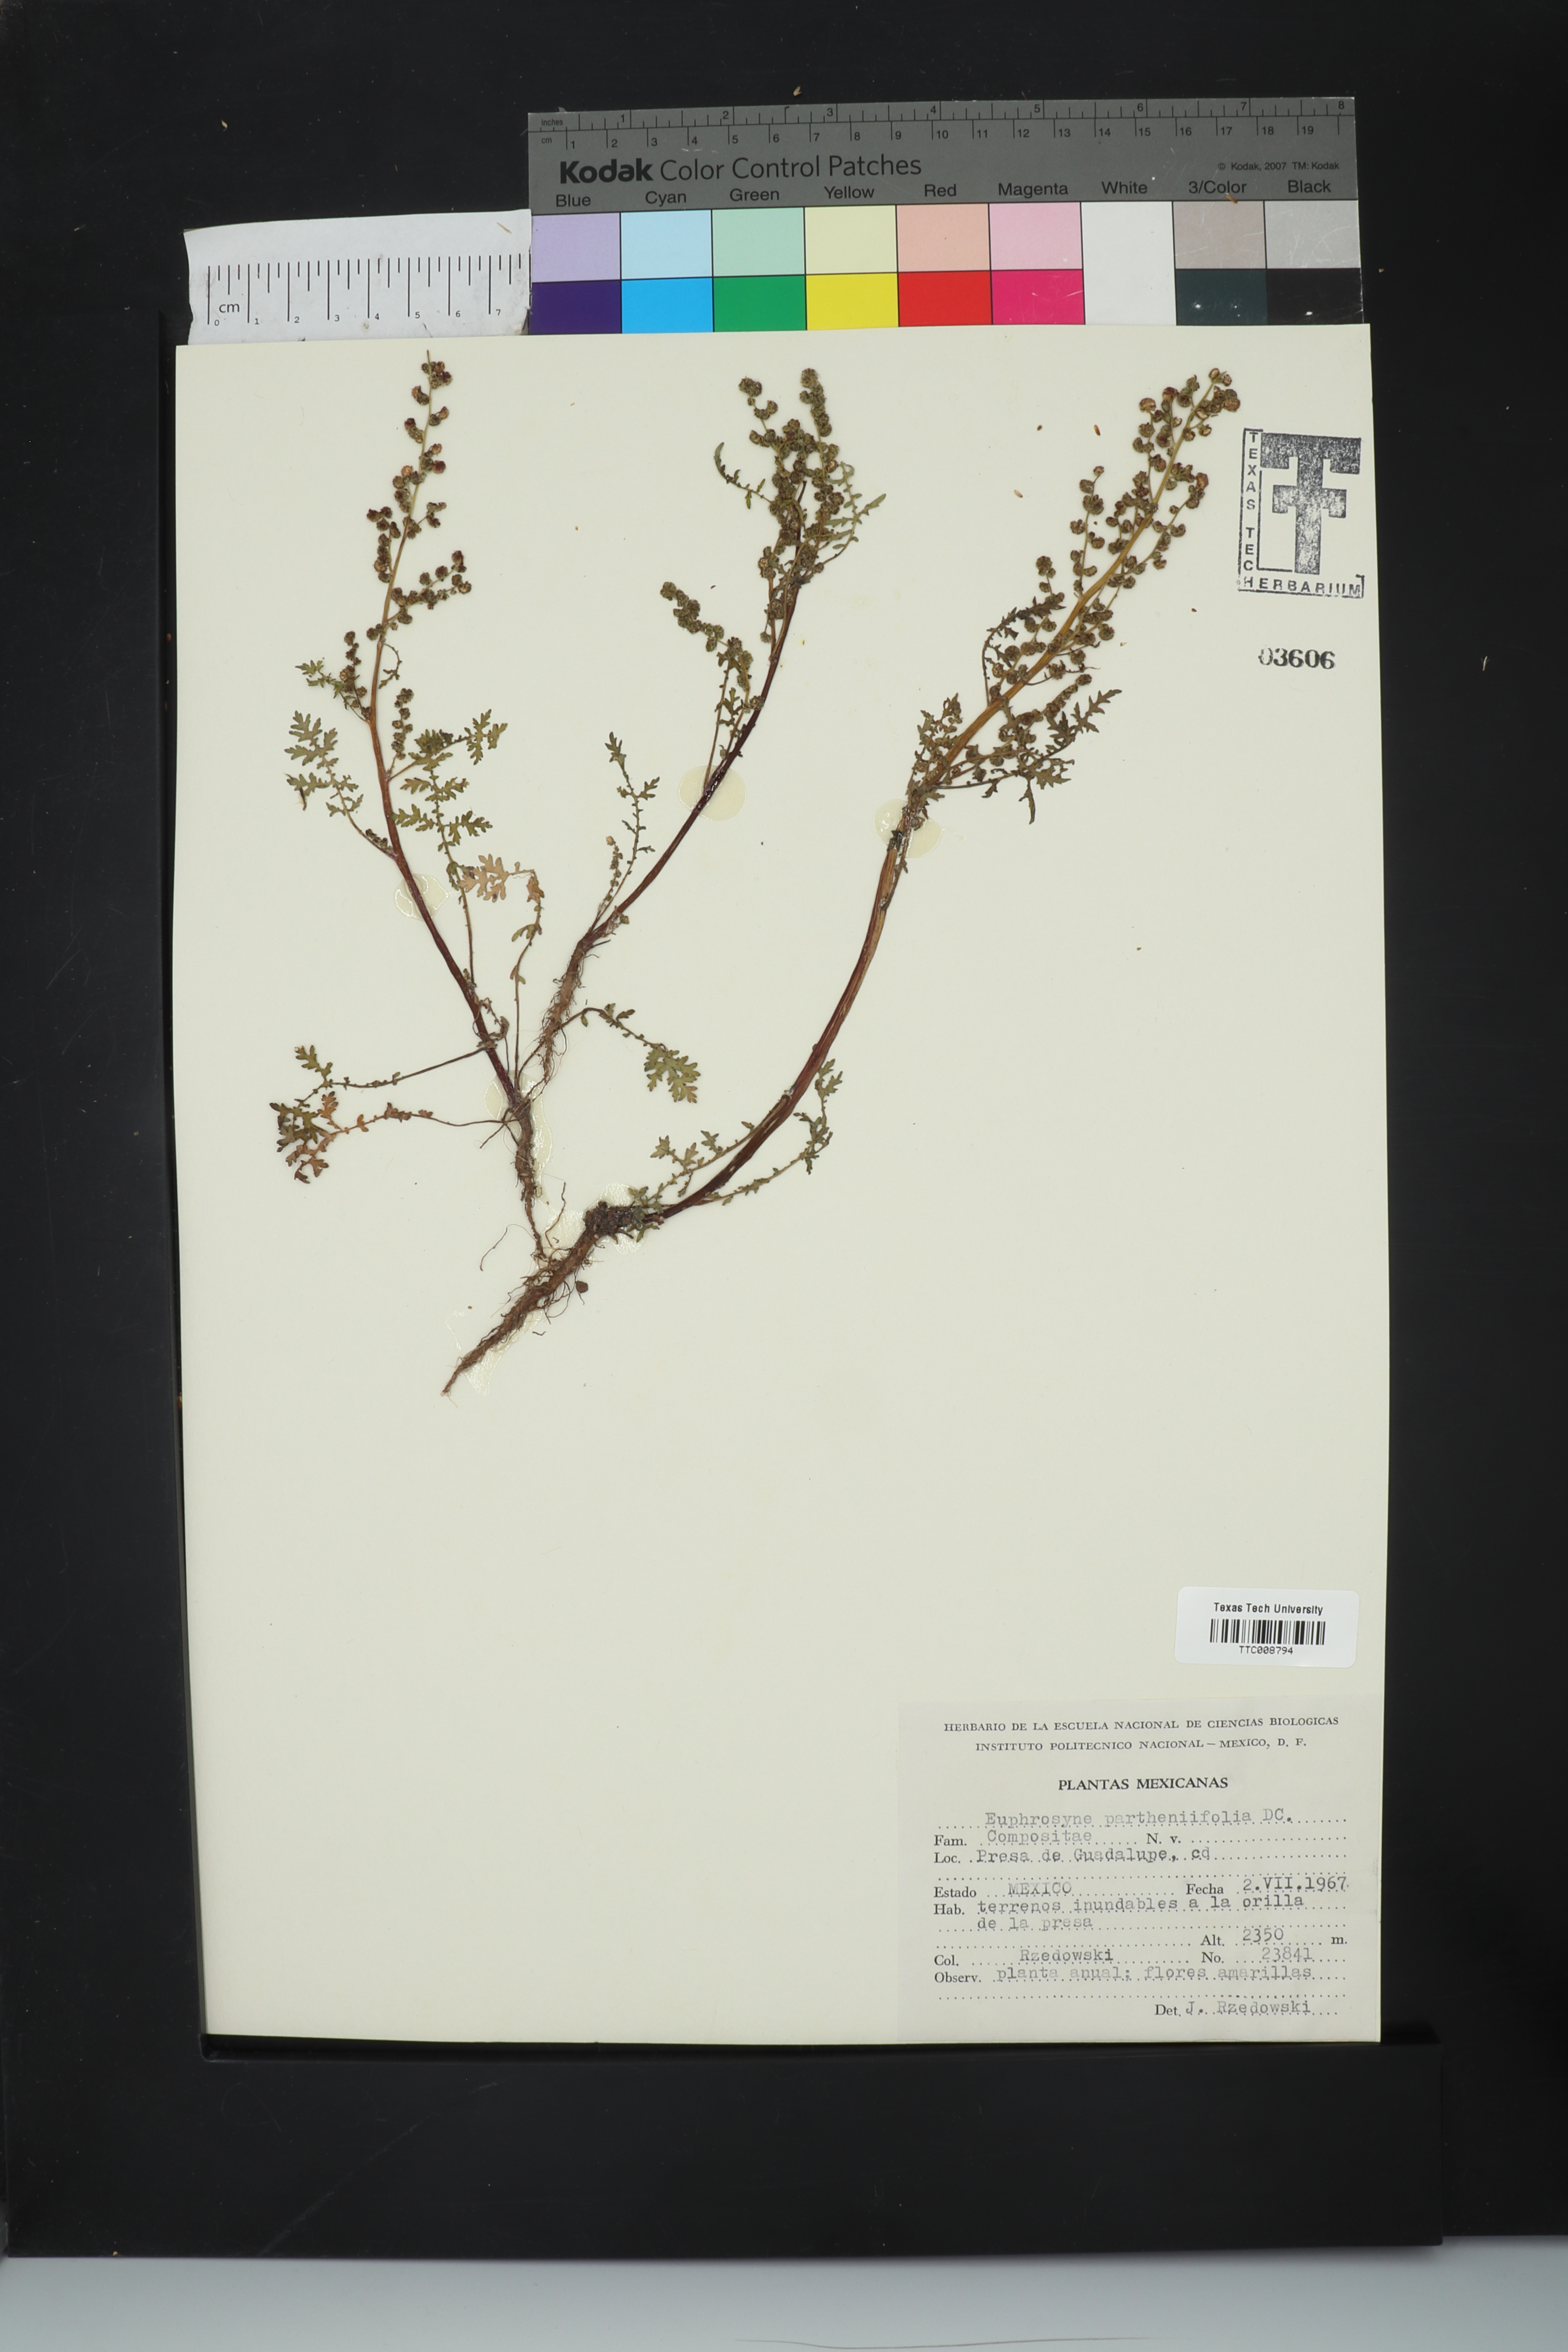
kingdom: Plantae
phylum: Tracheophyta
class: Magnoliopsida
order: Asterales
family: Asteraceae
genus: Euphrosyne
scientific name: Euphrosyne partheniifolia
